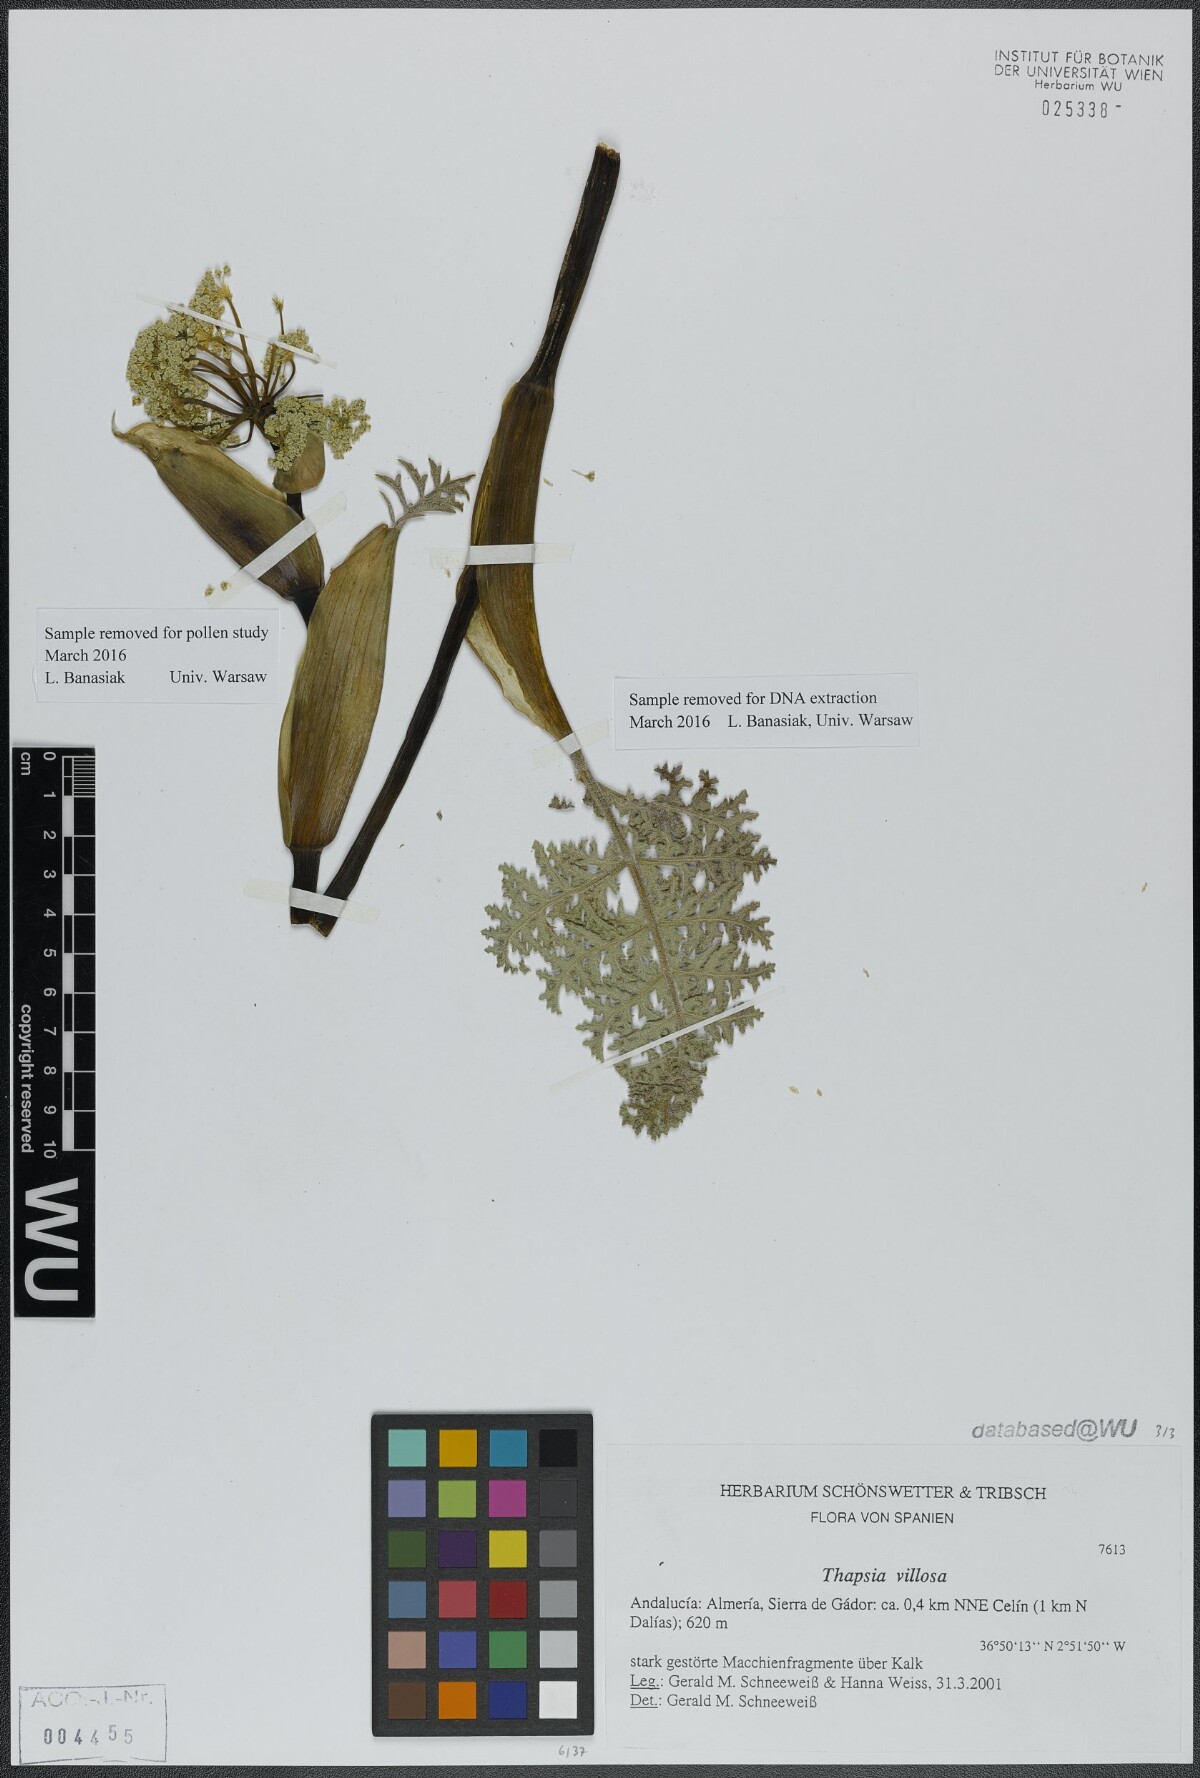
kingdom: Plantae
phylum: Tracheophyta
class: Magnoliopsida
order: Apiales
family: Apiaceae
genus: Thapsia
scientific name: Thapsia villosa
